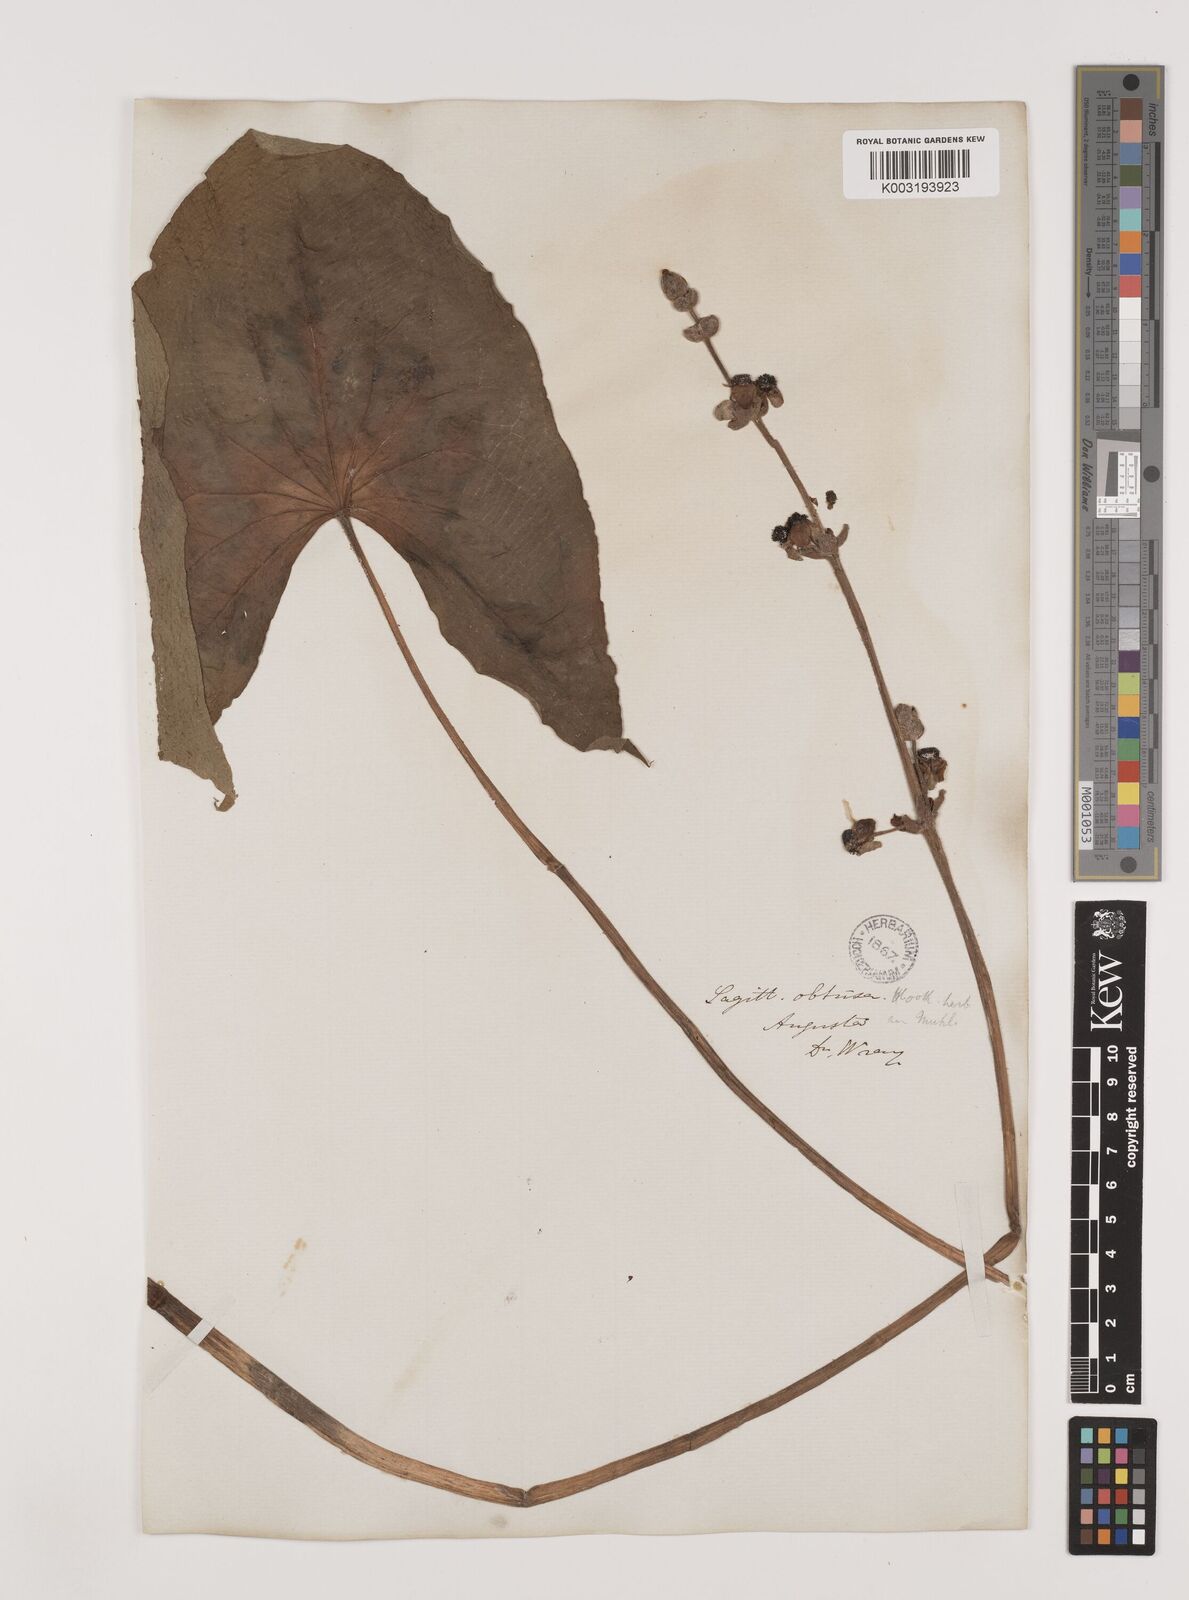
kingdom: Plantae
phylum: Tracheophyta
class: Liliopsida
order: Alismatales
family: Alismataceae
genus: Sagittaria
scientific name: Sagittaria latifolia
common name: Duck-potato
